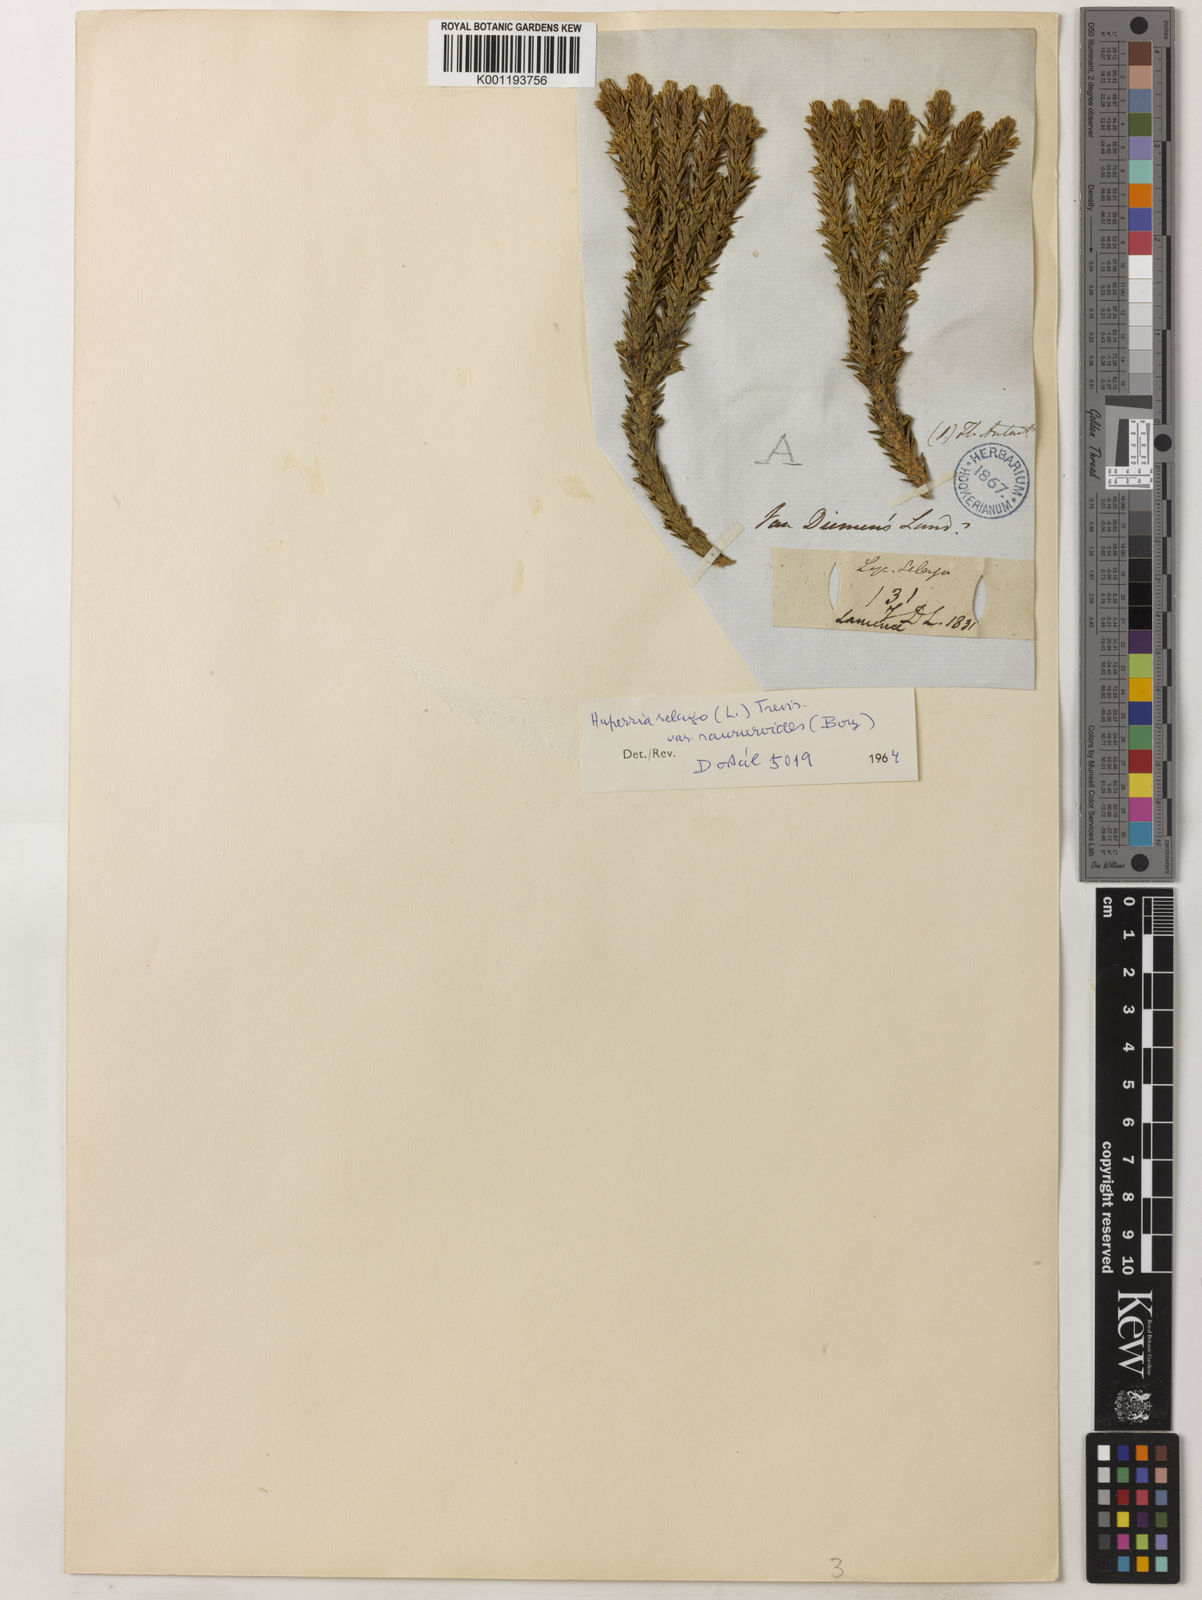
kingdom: Plantae
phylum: Tracheophyta
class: Lycopodiopsida
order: Lycopodiales
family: Lycopodiaceae
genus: Huperzia
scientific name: Huperzia australiana
